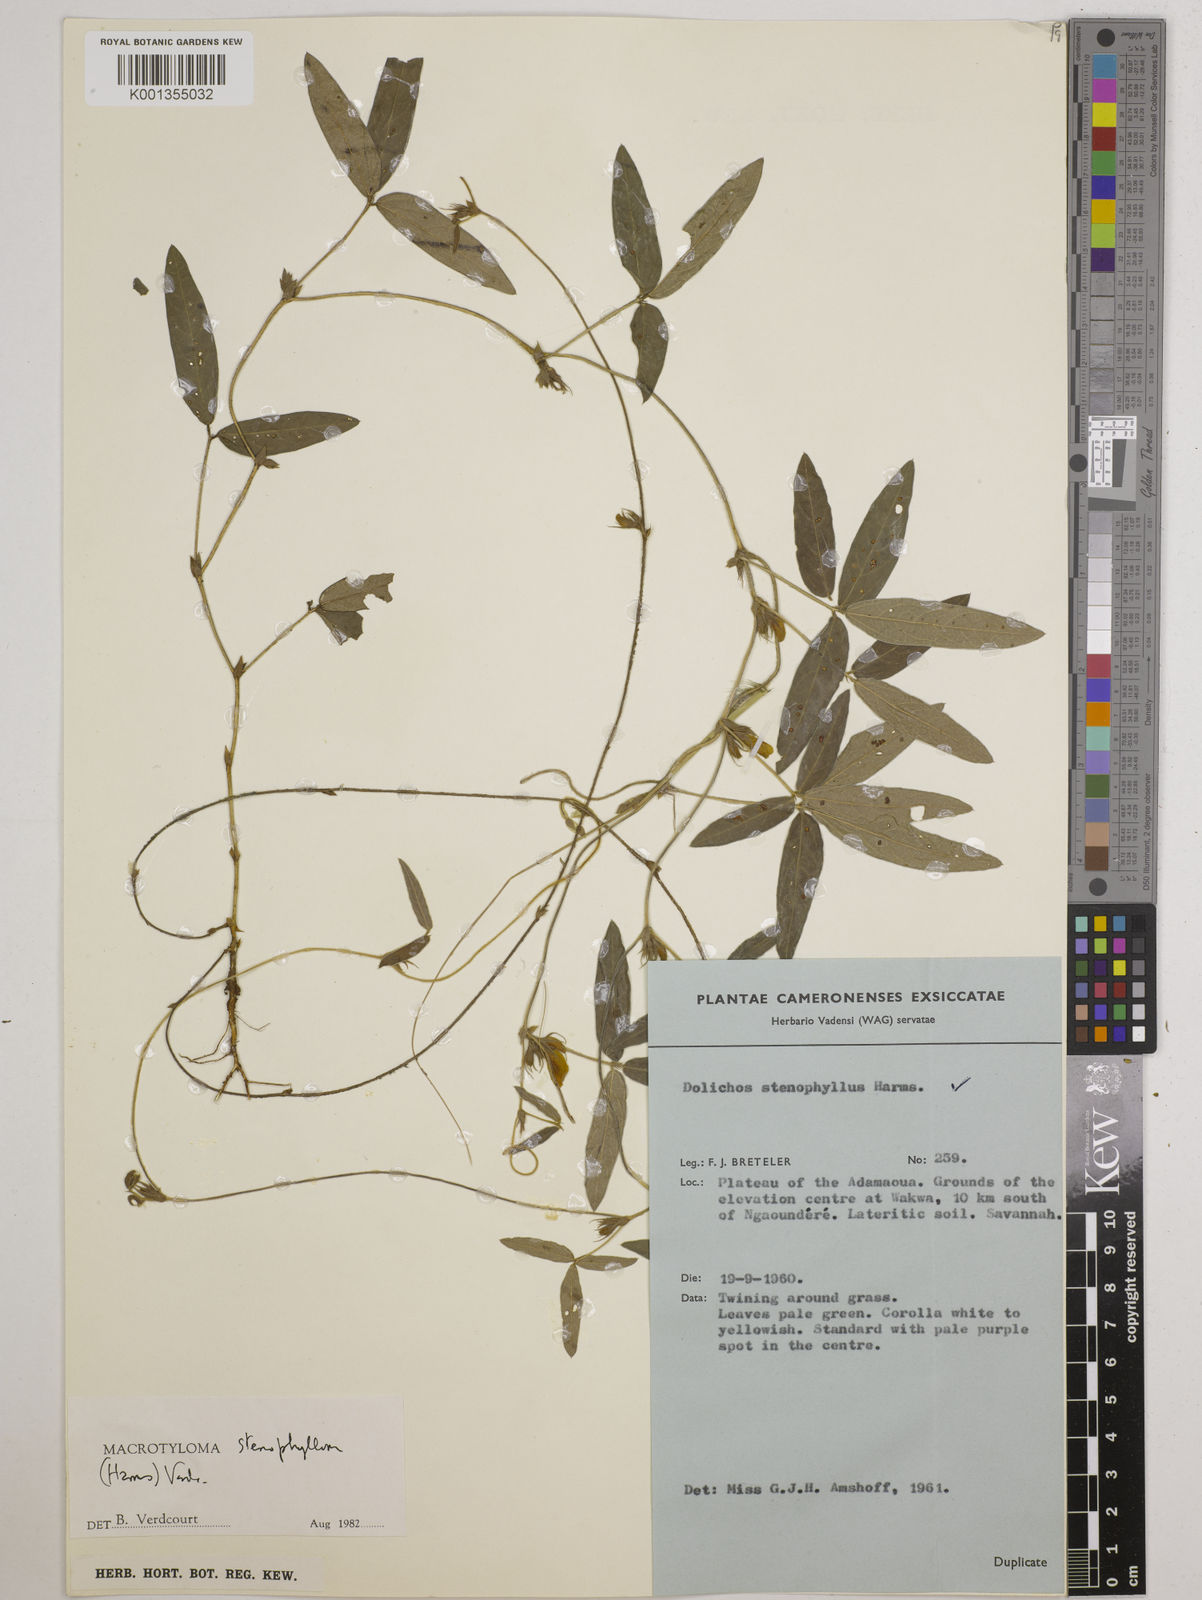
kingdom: Plantae
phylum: Tracheophyta
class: Magnoliopsida
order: Fabales
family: Fabaceae
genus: Macrotyloma
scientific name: Macrotyloma stenophyllum
